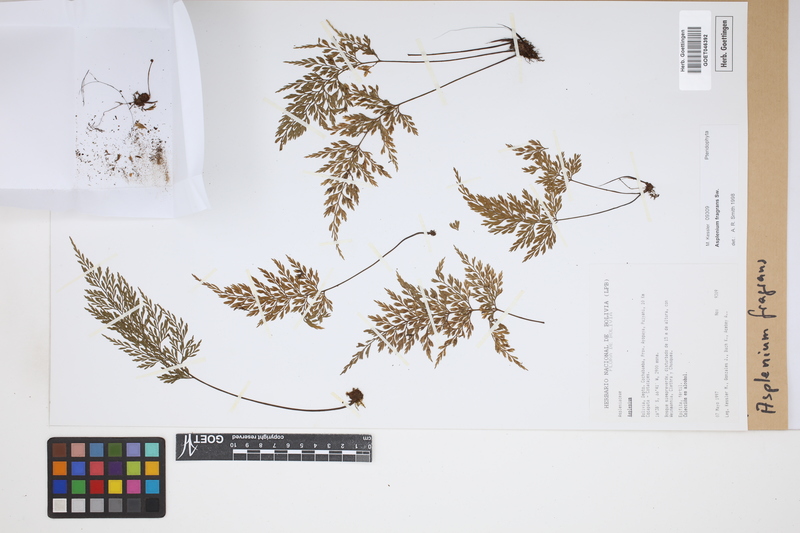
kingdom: Plantae
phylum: Tracheophyta
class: Polypodiopsida
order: Polypodiales
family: Aspleniaceae
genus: Asplenium
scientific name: Asplenium fragrans
